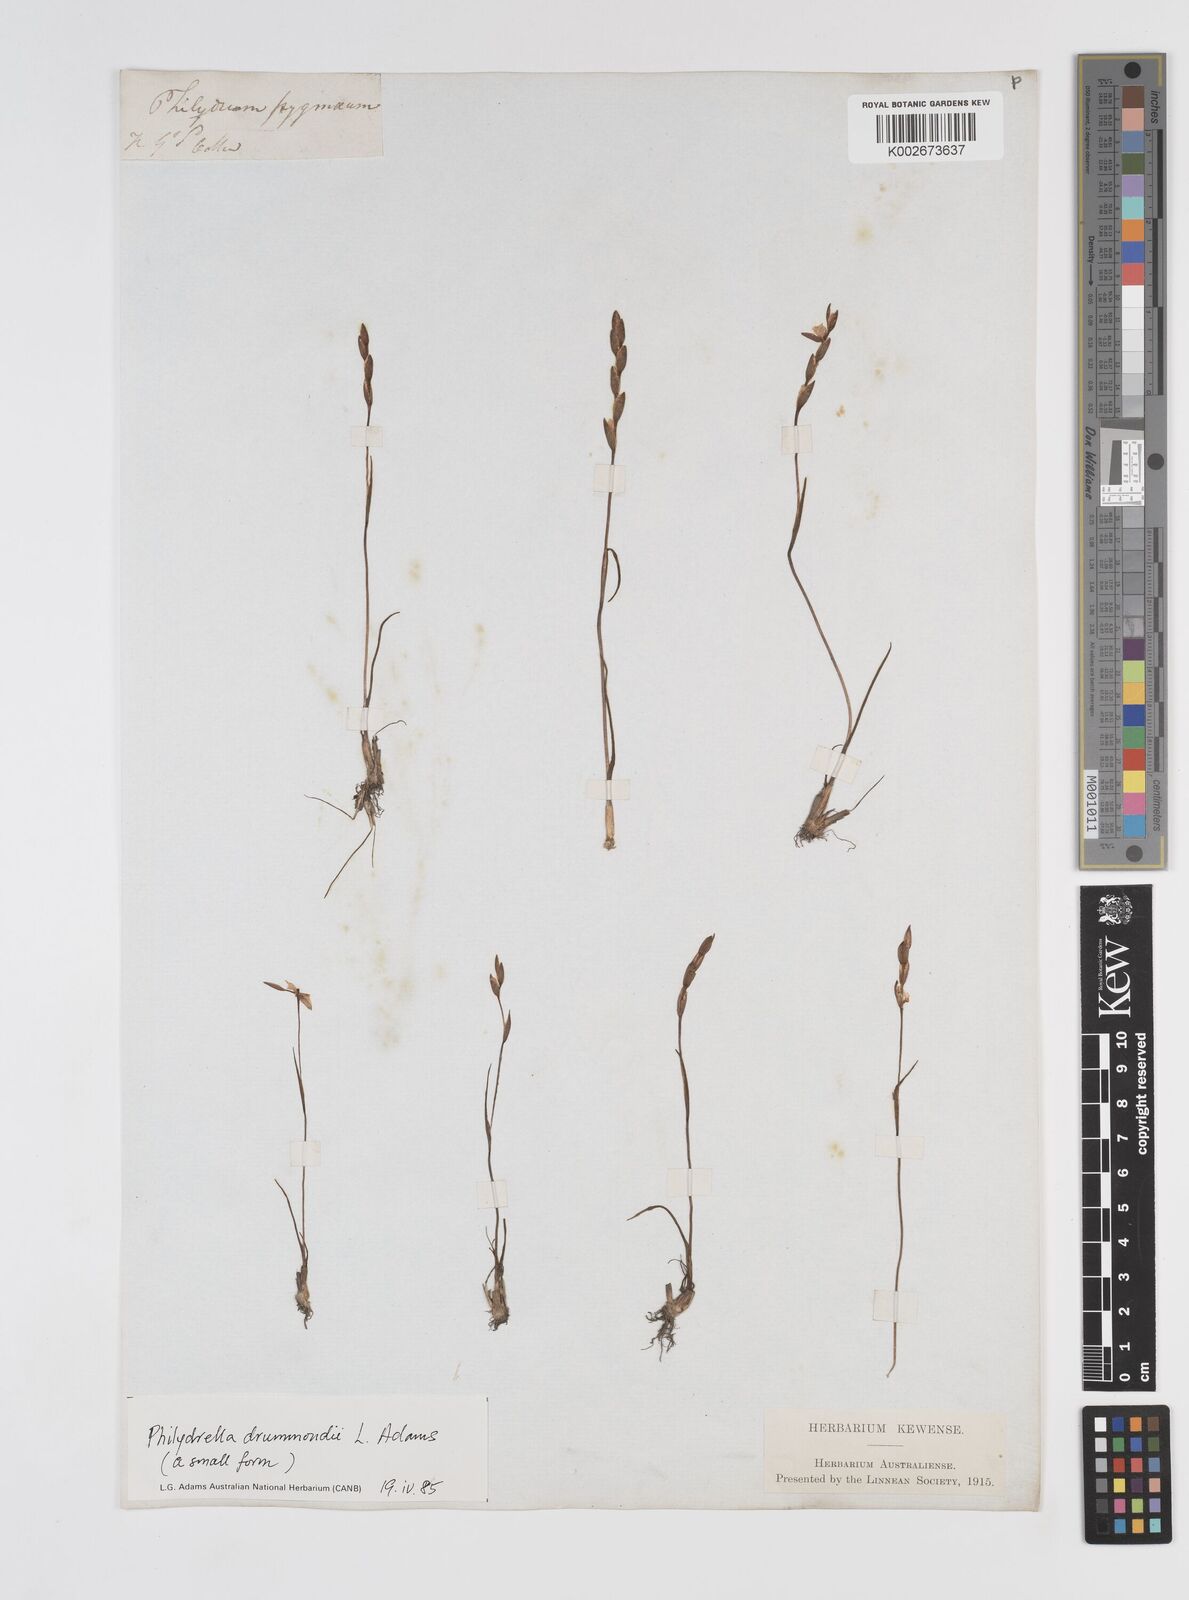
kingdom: Plantae
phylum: Tracheophyta
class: Liliopsida
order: Commelinales
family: Philydraceae
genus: Philydrella
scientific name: Philydrella drummondii
